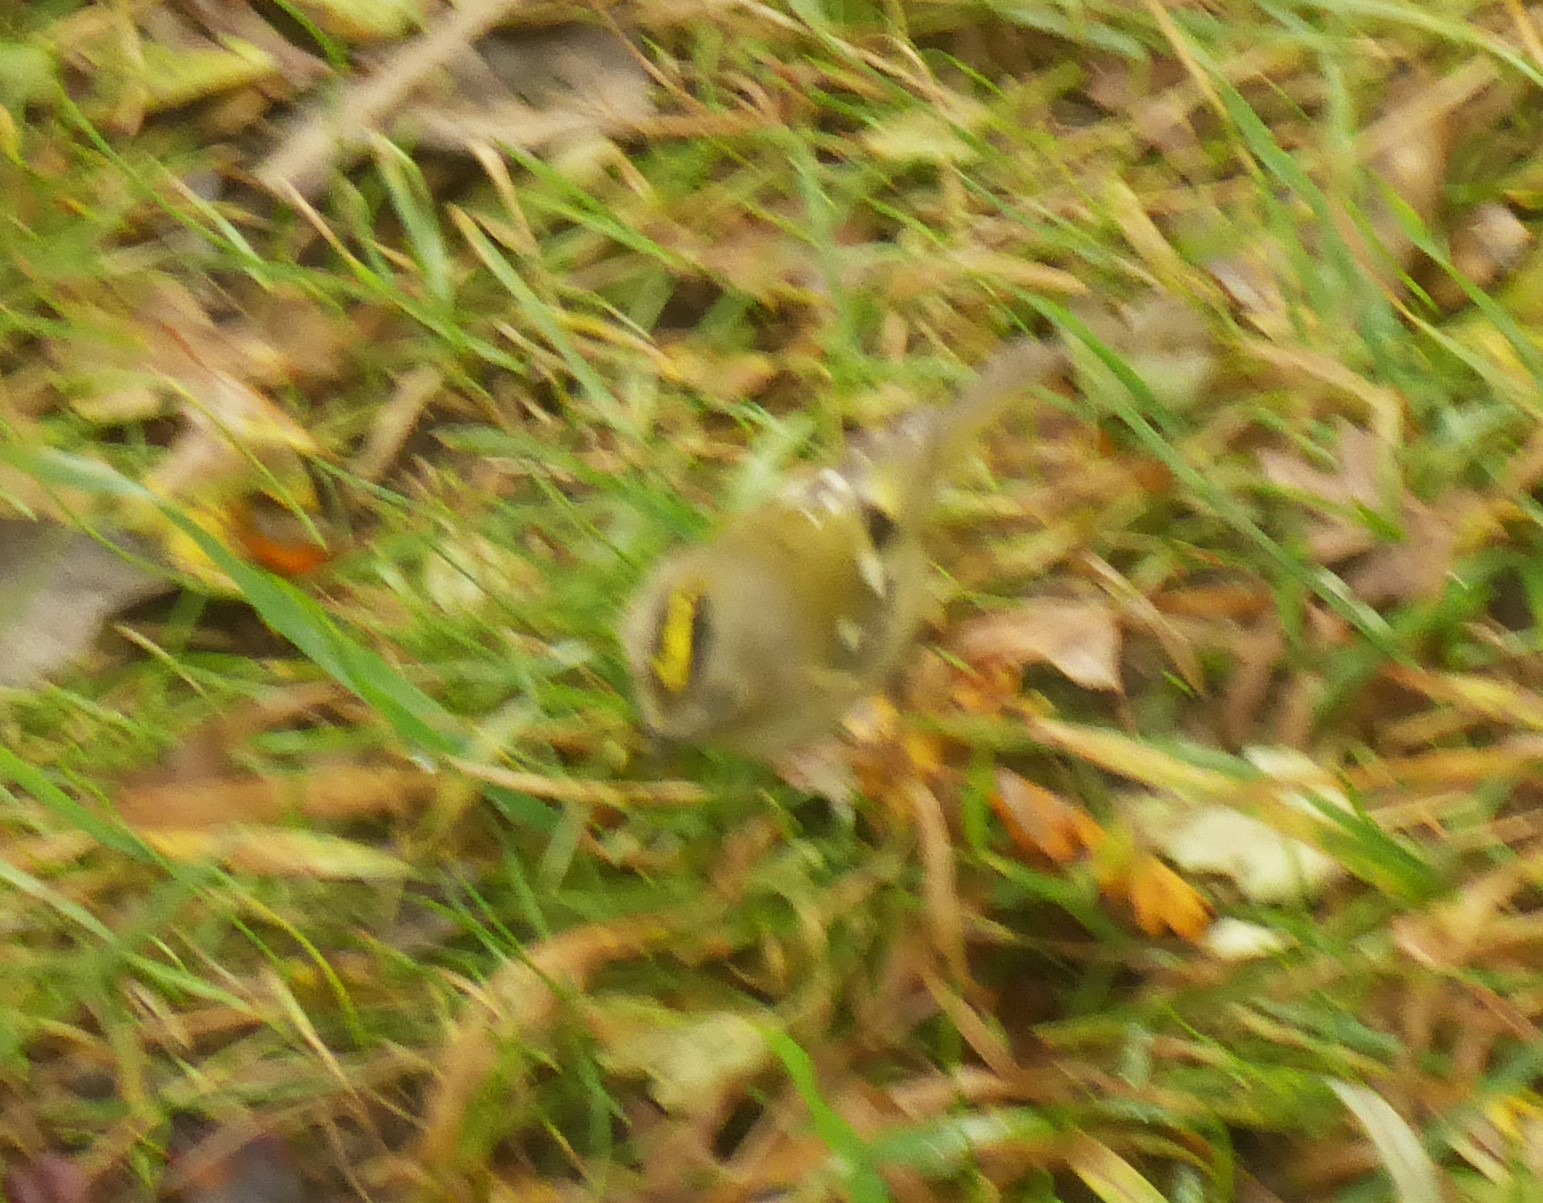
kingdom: Animalia
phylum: Chordata
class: Aves
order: Passeriformes
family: Regulidae
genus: Regulus
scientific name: Regulus regulus
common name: Fuglekonge
